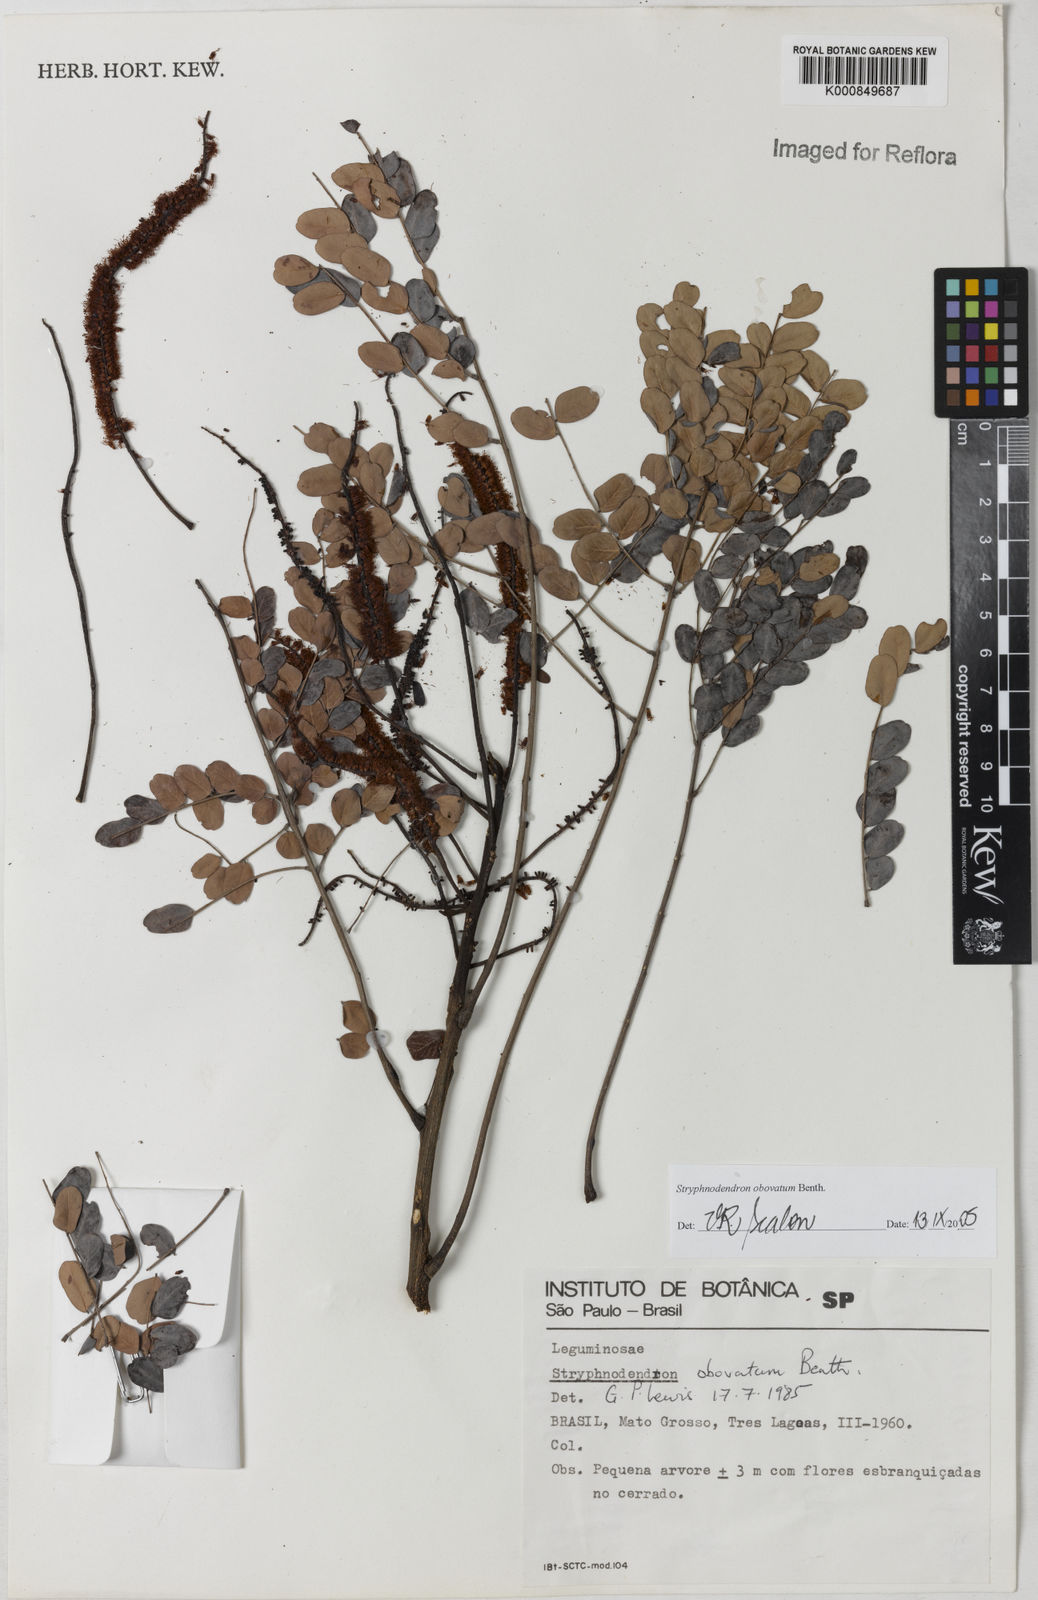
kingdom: Plantae
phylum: Tracheophyta
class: Magnoliopsida
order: Fabales
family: Fabaceae
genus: Stryphnodendron
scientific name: Stryphnodendron rotundifolium
